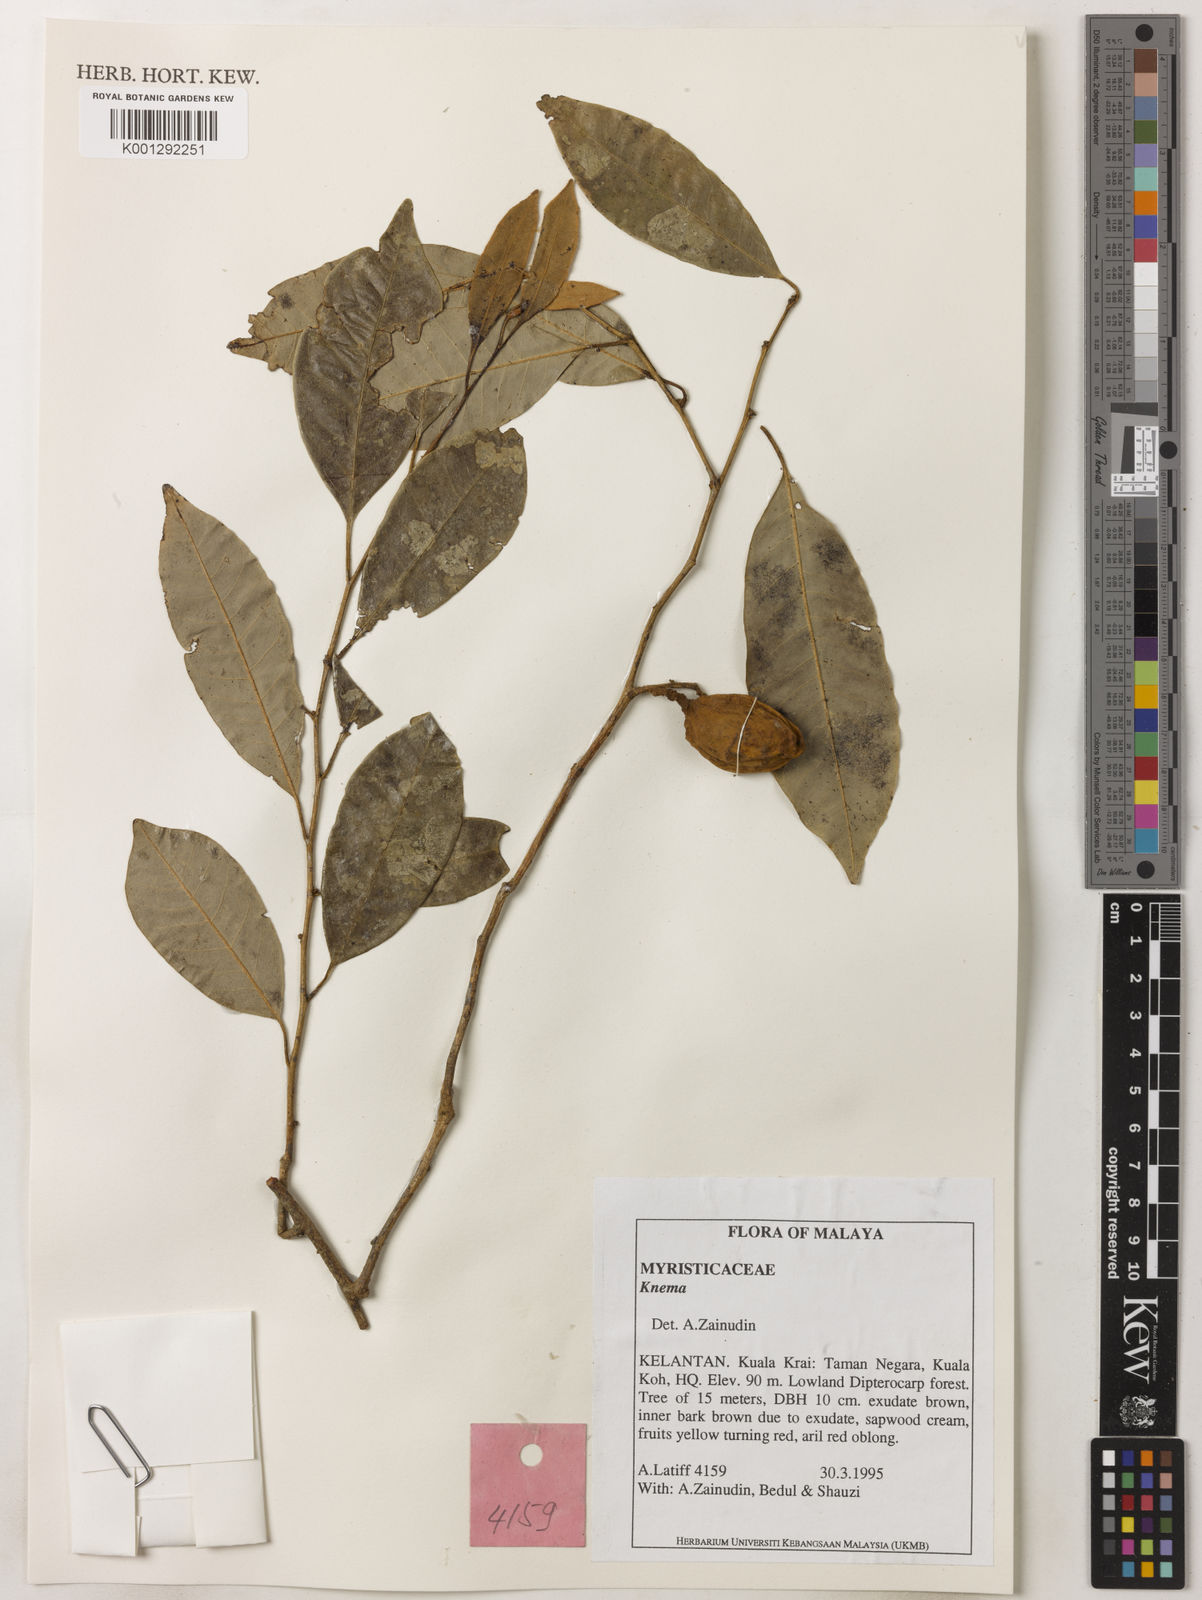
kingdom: Plantae
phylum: Tracheophyta
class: Magnoliopsida
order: Magnoliales
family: Myristicaceae
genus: Knema
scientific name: Knema
